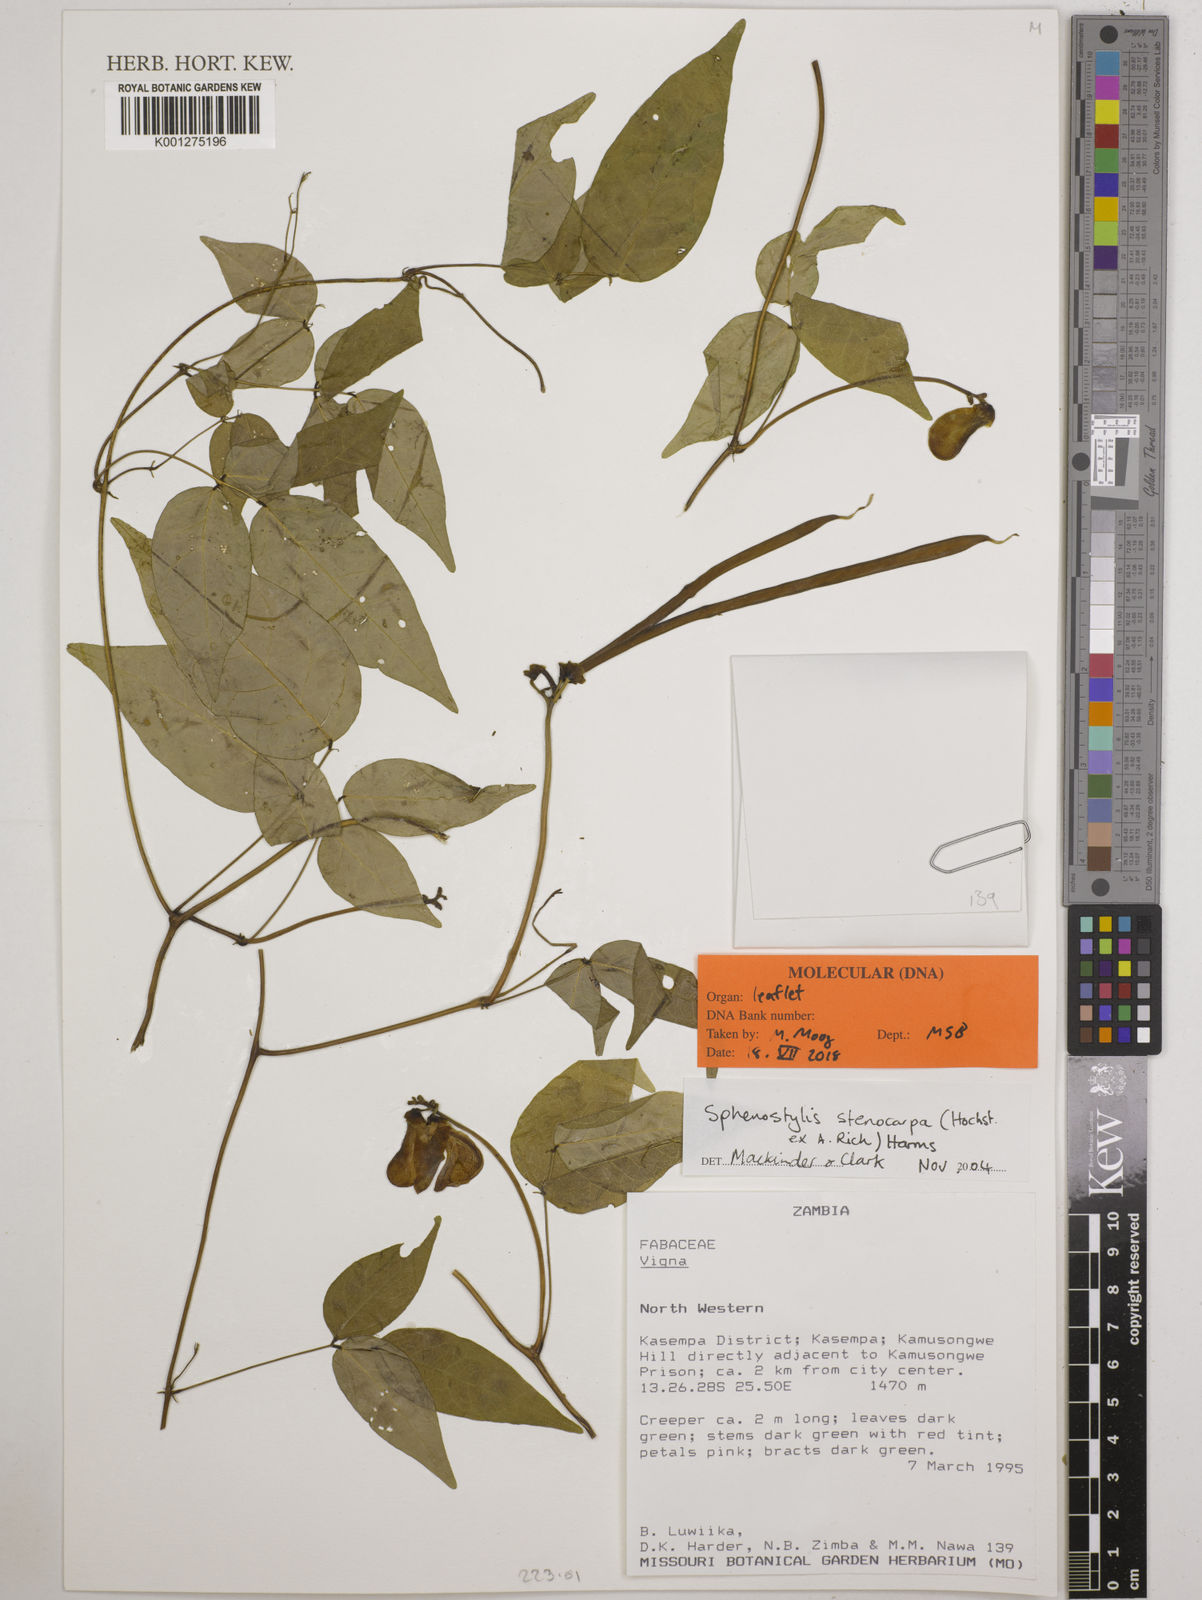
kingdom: Plantae
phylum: Tracheophyta
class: Magnoliopsida
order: Fabales
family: Fabaceae
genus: Sphenostylis
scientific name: Sphenostylis stenocarpa
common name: Yam-pea
